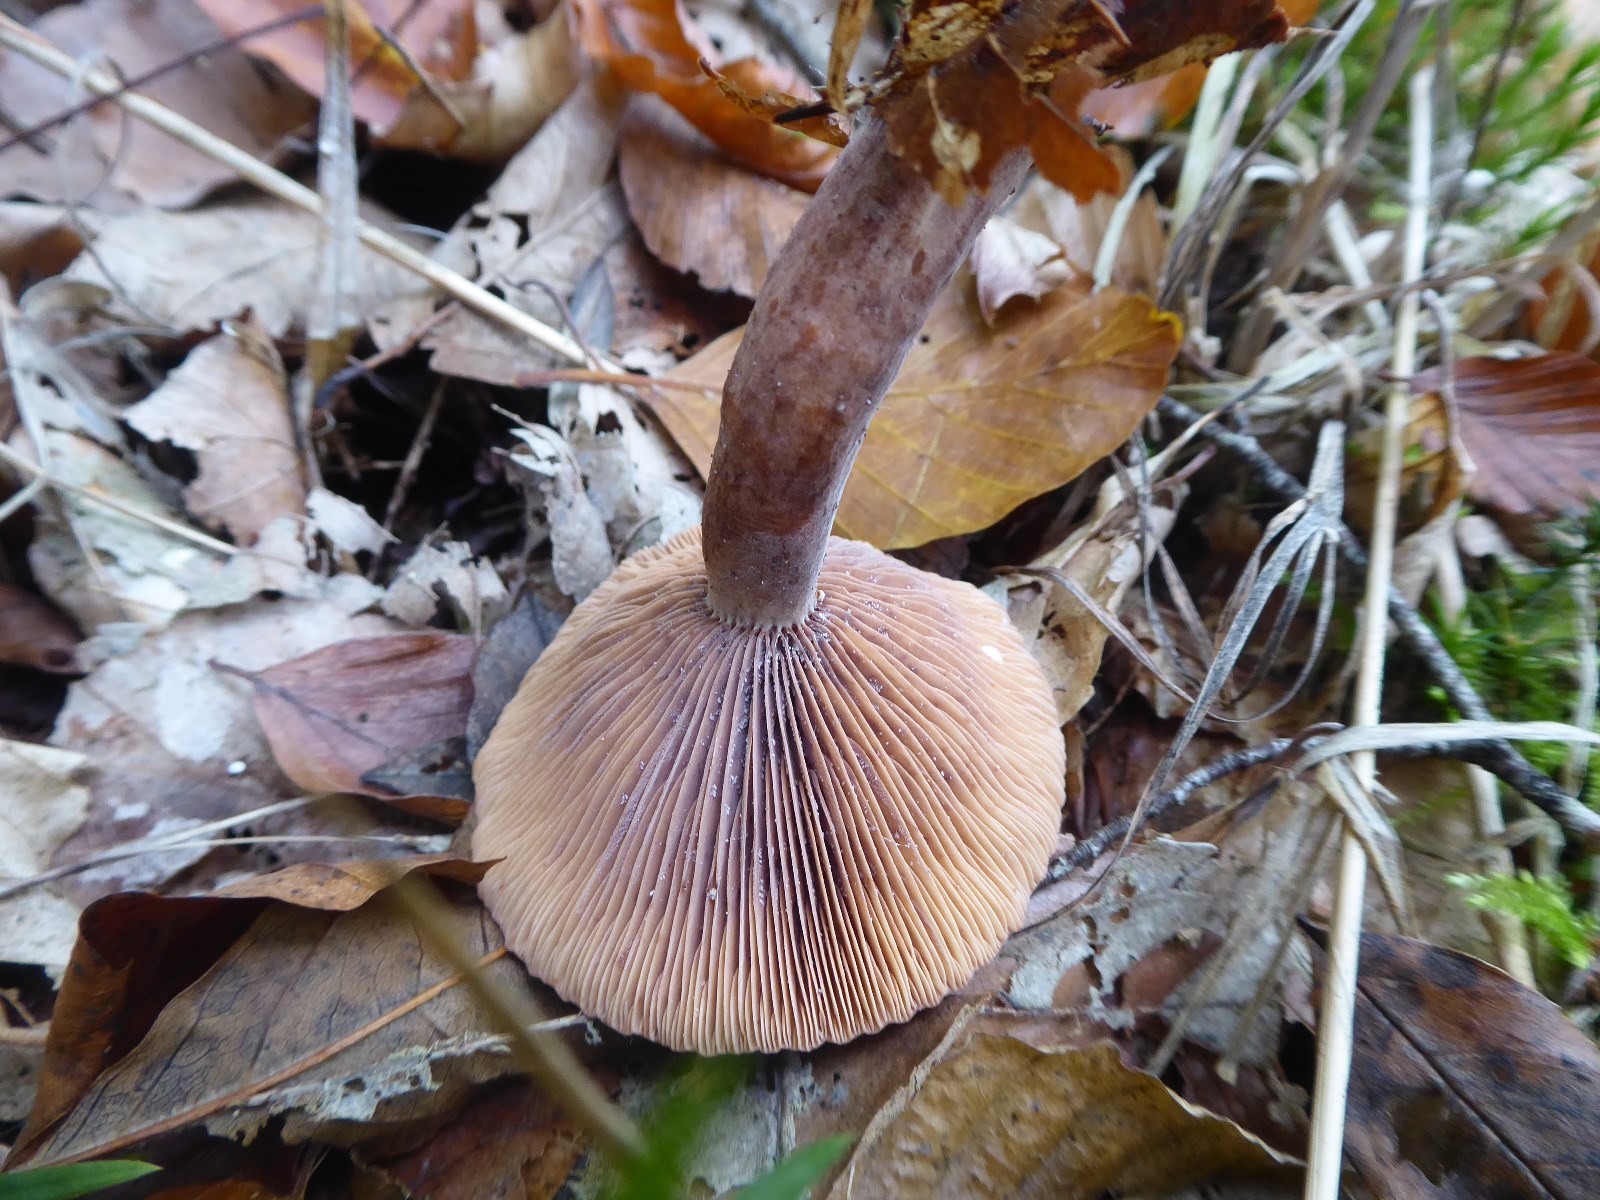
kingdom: Fungi
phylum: Basidiomycota
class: Agaricomycetes
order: Russulales
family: Russulaceae
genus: Lactarius
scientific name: Lactarius camphoratus
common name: kamfer-mælkehat
